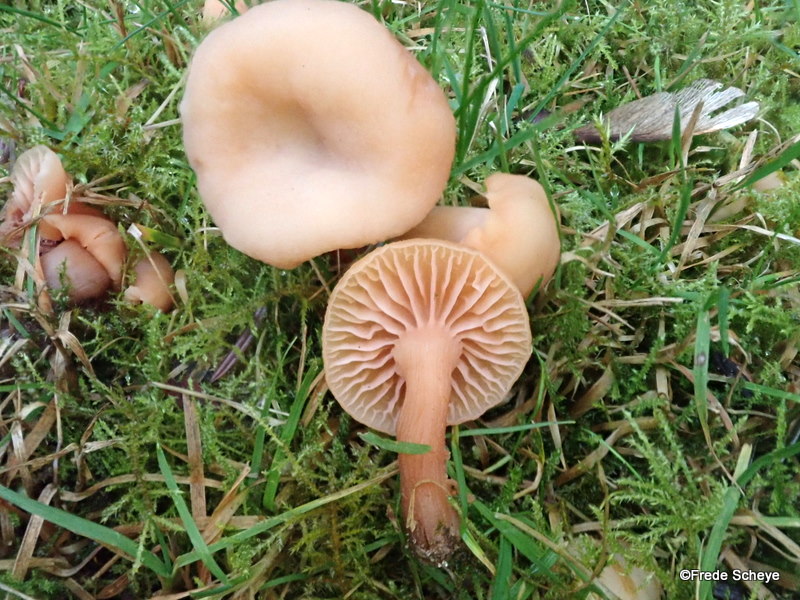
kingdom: Fungi
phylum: Basidiomycota
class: Agaricomycetes
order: Agaricales
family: Hydnangiaceae
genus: Laccaria
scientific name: Laccaria laccata
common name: rød ametysthat
